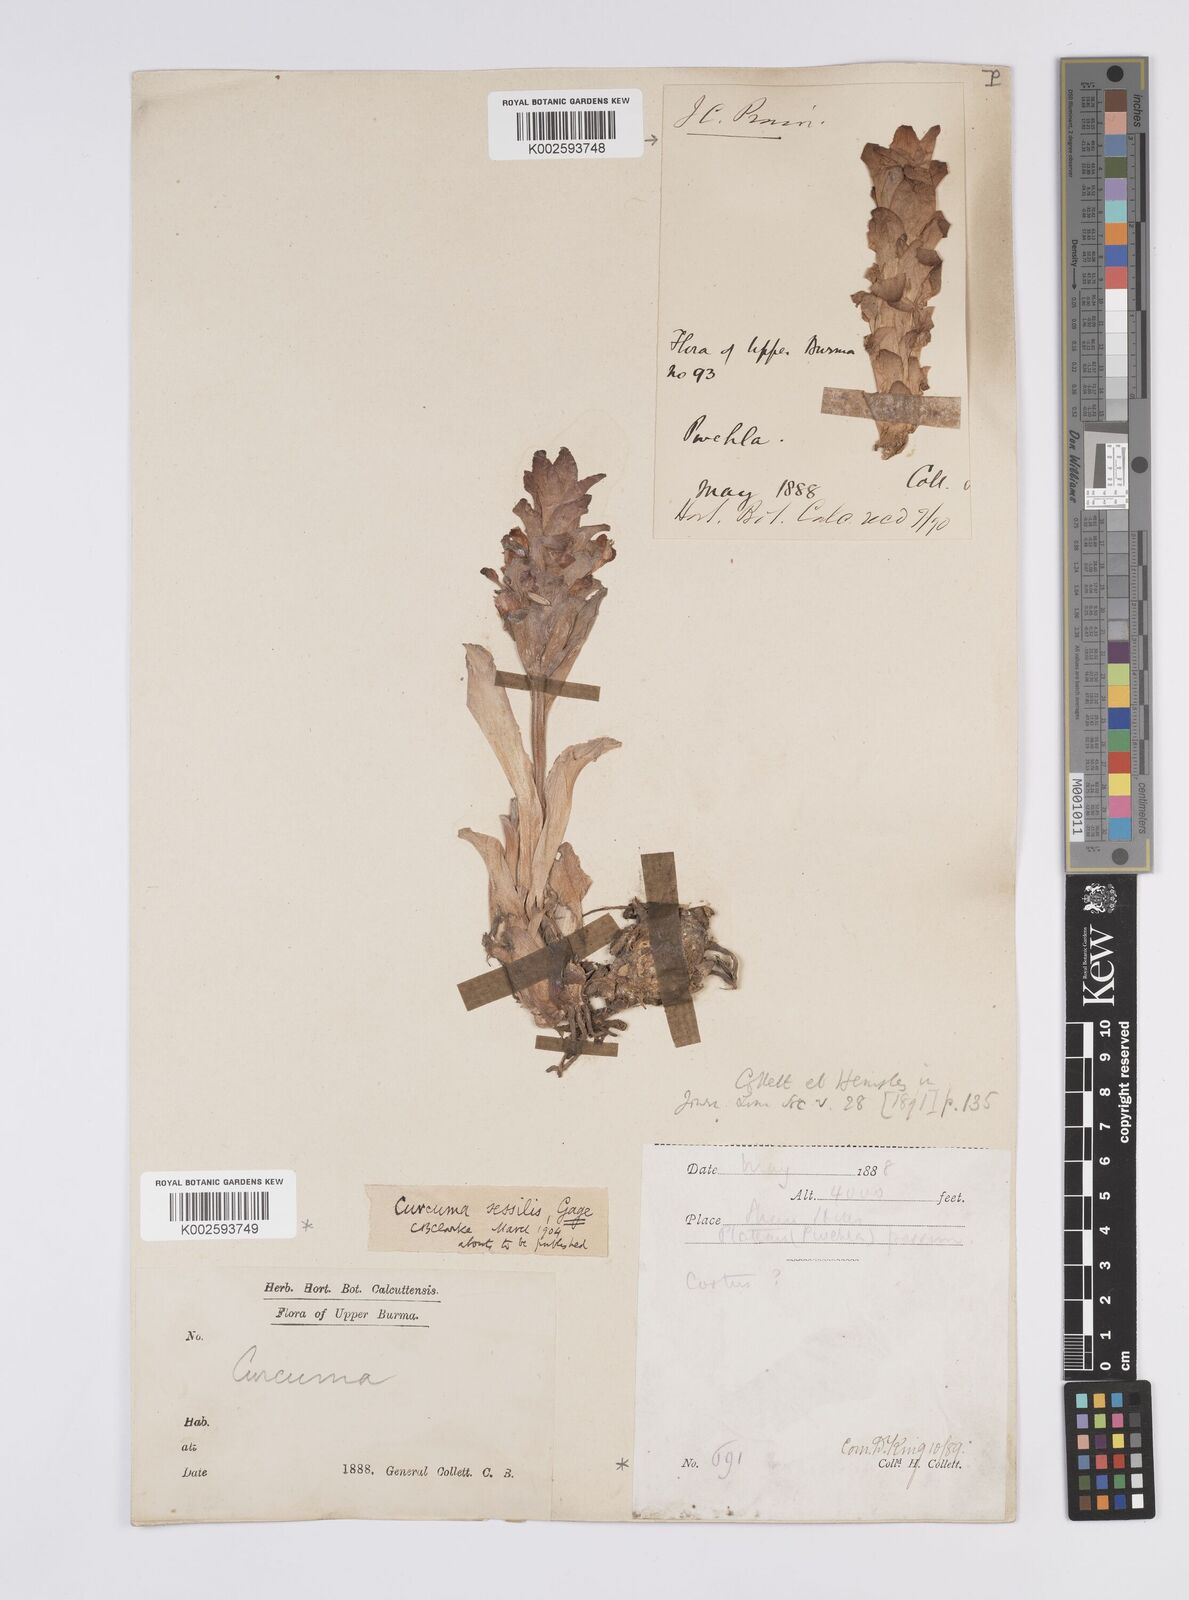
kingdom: Plantae
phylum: Tracheophyta
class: Liliopsida
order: Zingiberales
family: Zingiberaceae
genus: Curcuma
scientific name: Curcuma sessilis
